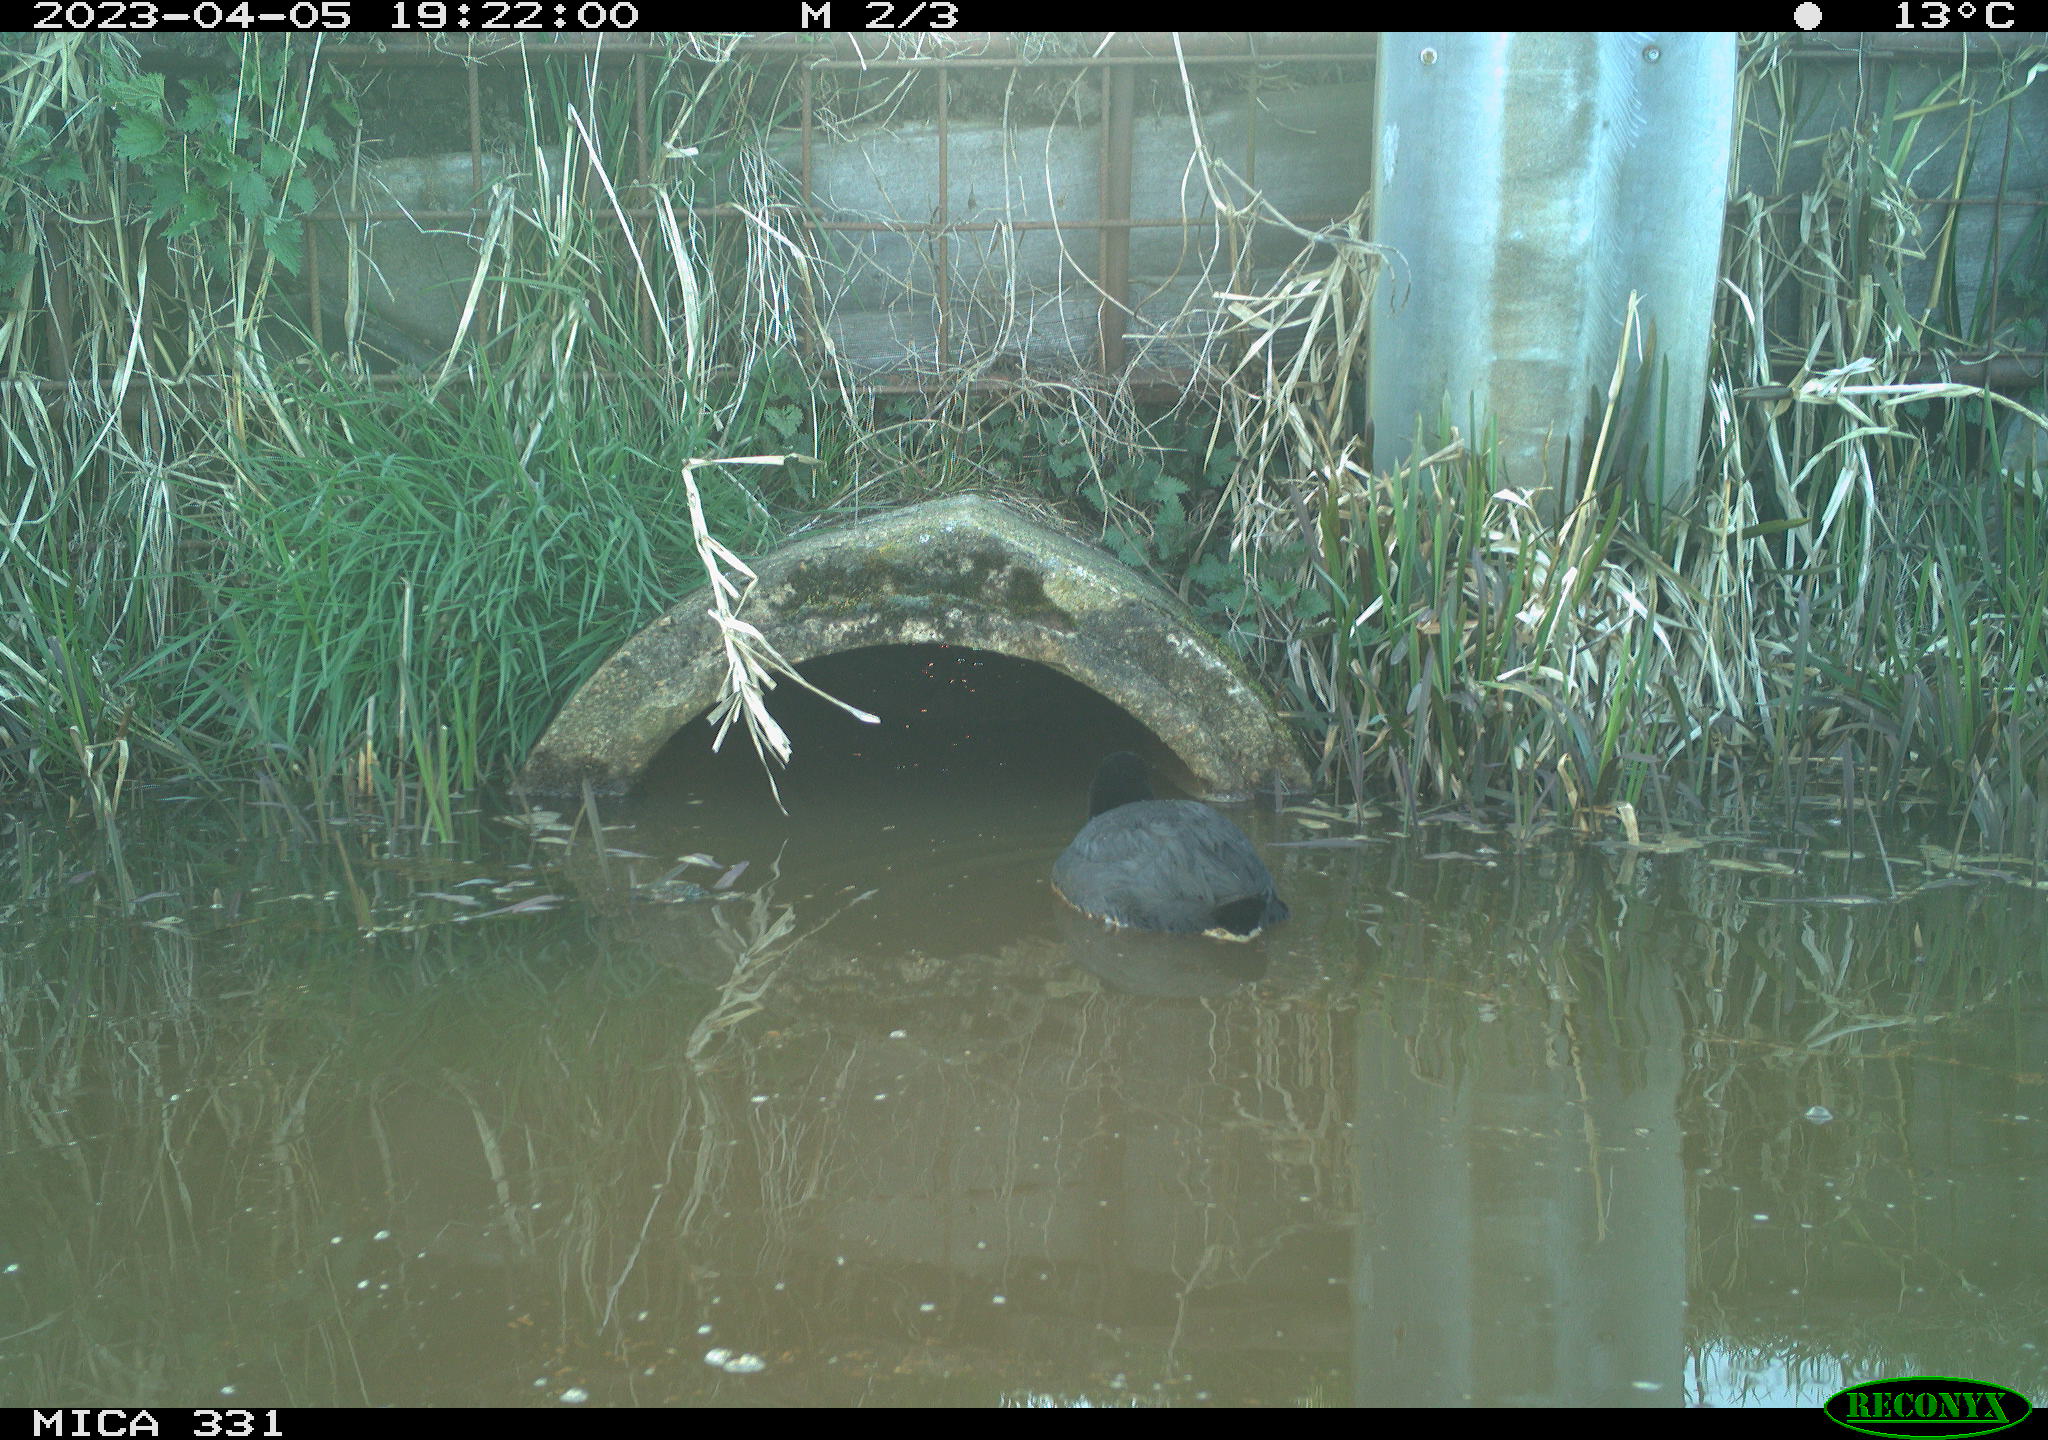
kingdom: Animalia
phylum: Chordata
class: Aves
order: Gruiformes
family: Rallidae
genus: Fulica
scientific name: Fulica atra
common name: Eurasian coot
